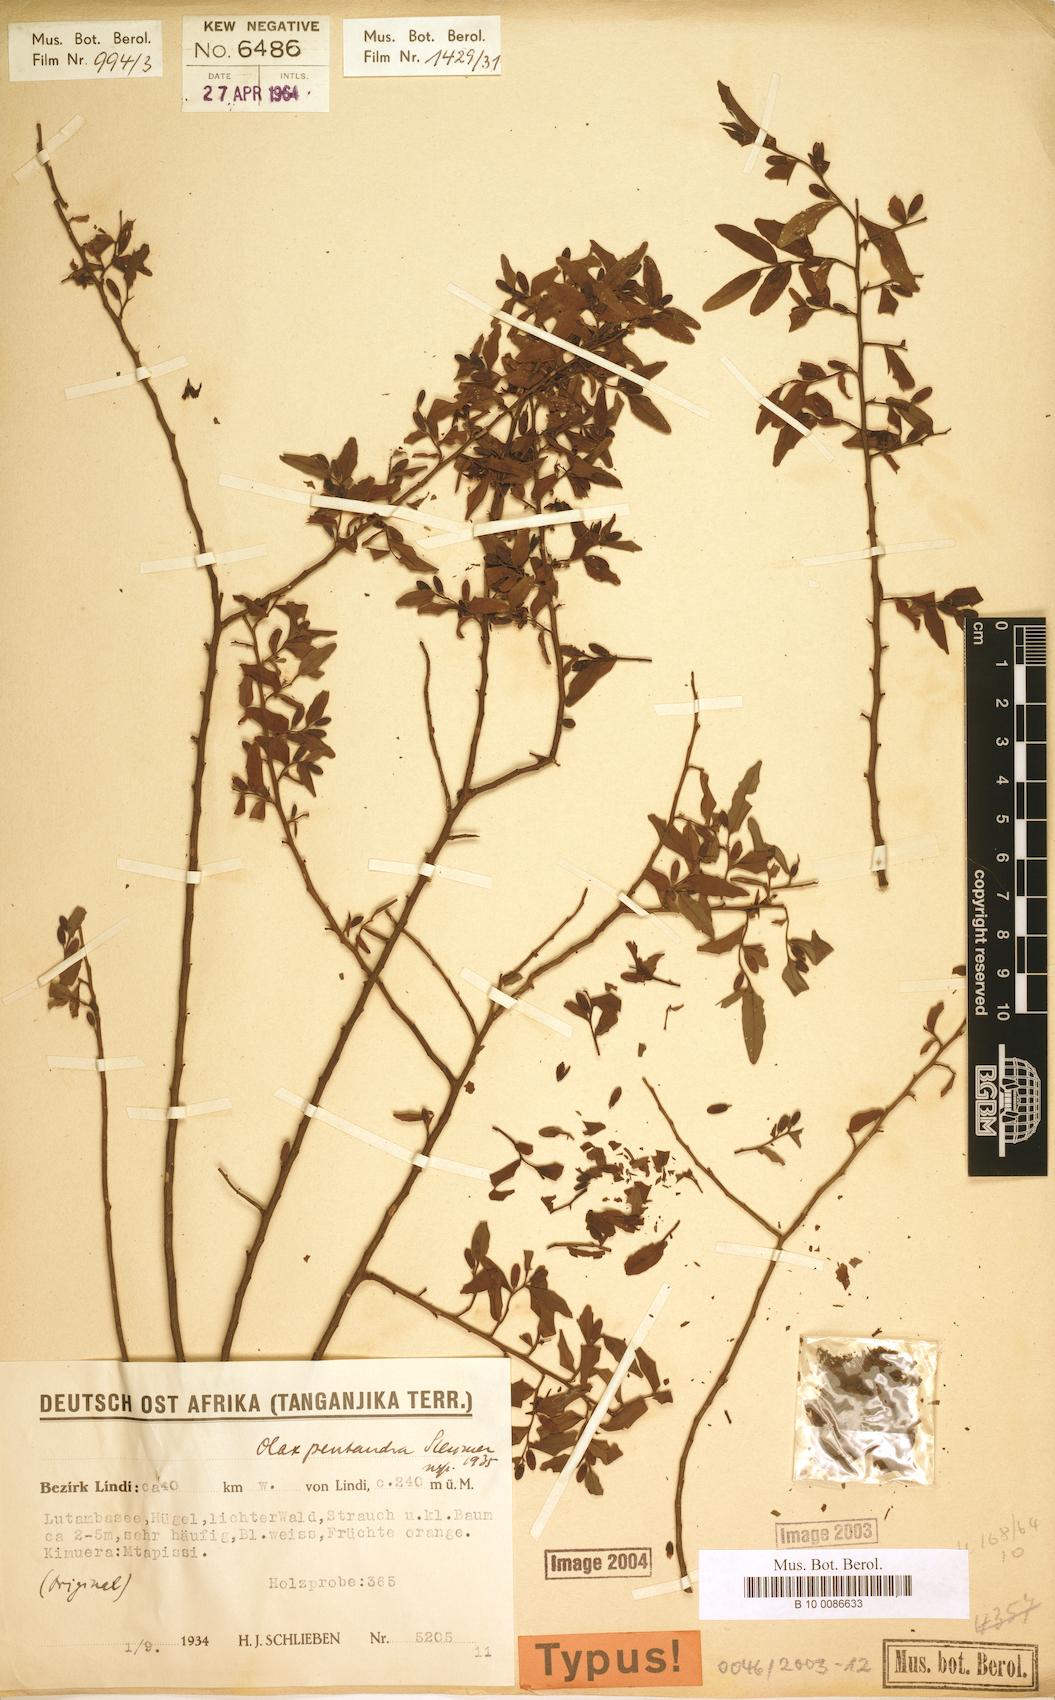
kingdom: Plantae
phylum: Tracheophyta
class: Magnoliopsida
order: Santalales
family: Olacaceae
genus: Olax
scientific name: Olax pentandra
